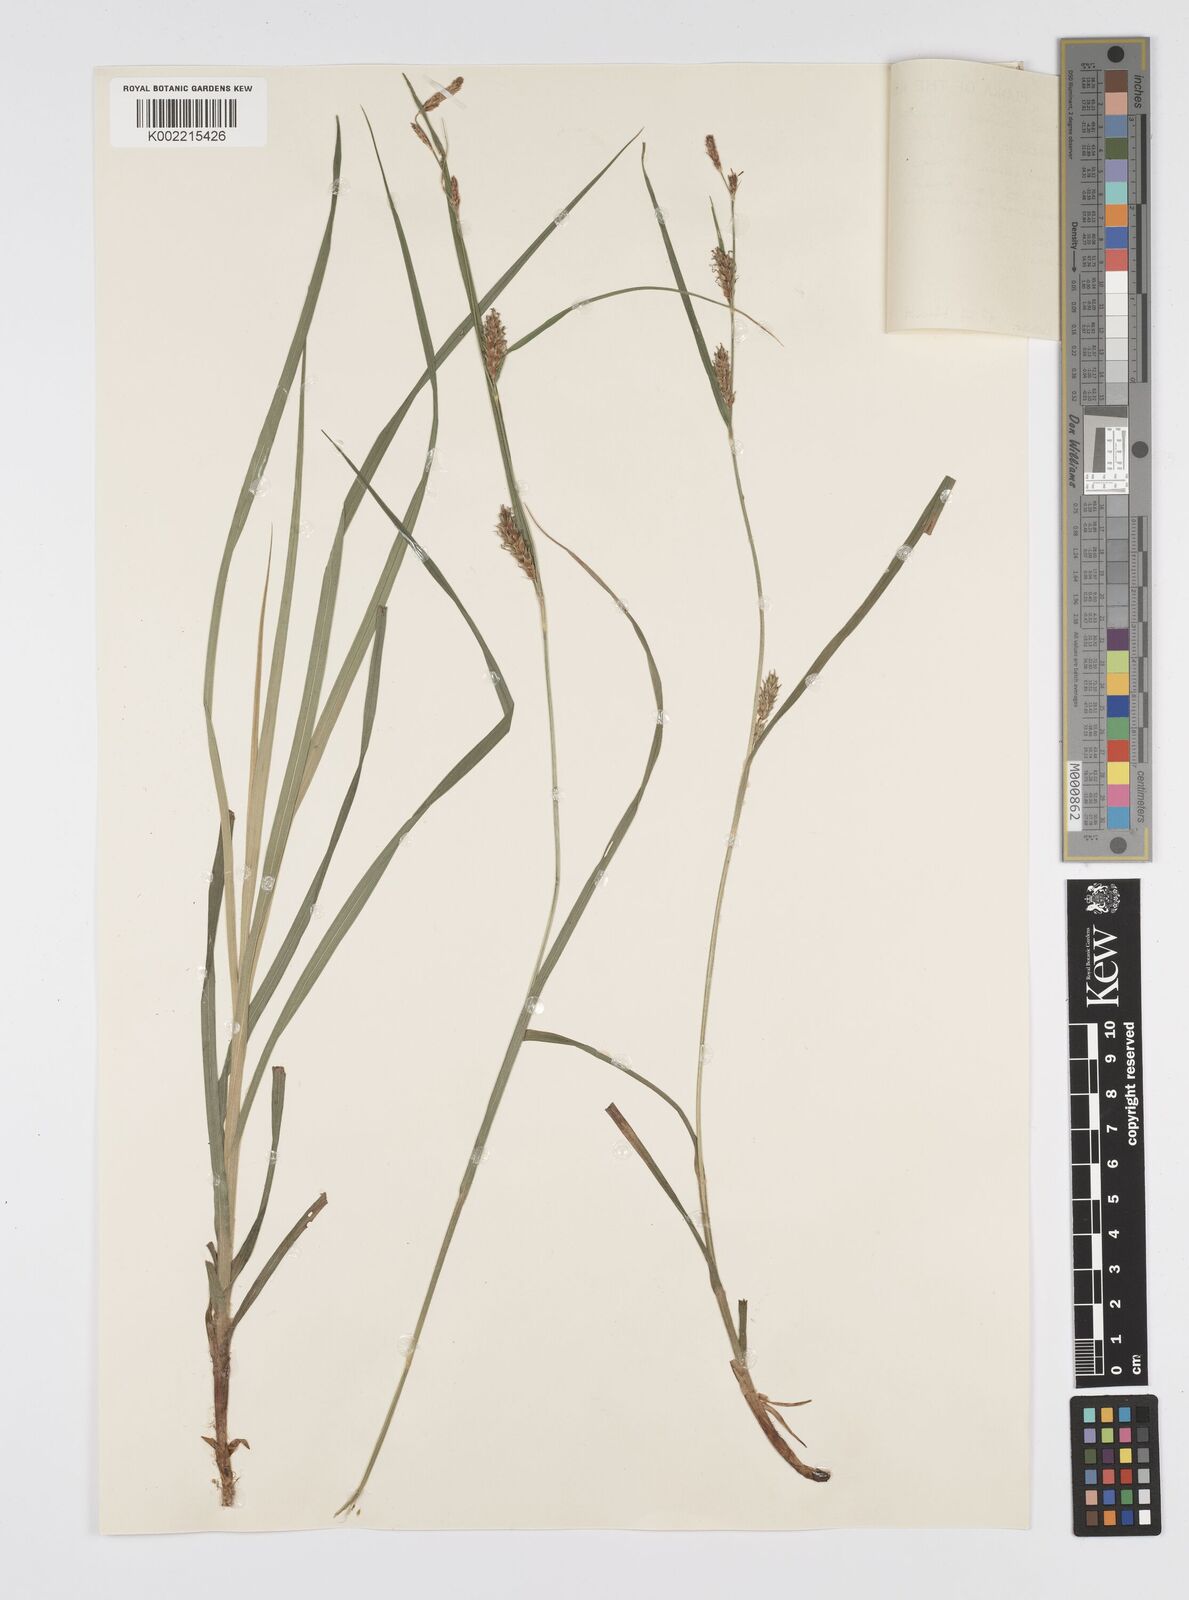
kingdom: Plantae
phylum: Tracheophyta
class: Liliopsida
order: Poales
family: Cyperaceae
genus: Carex
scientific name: Carex hirta
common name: Hairy sedge
